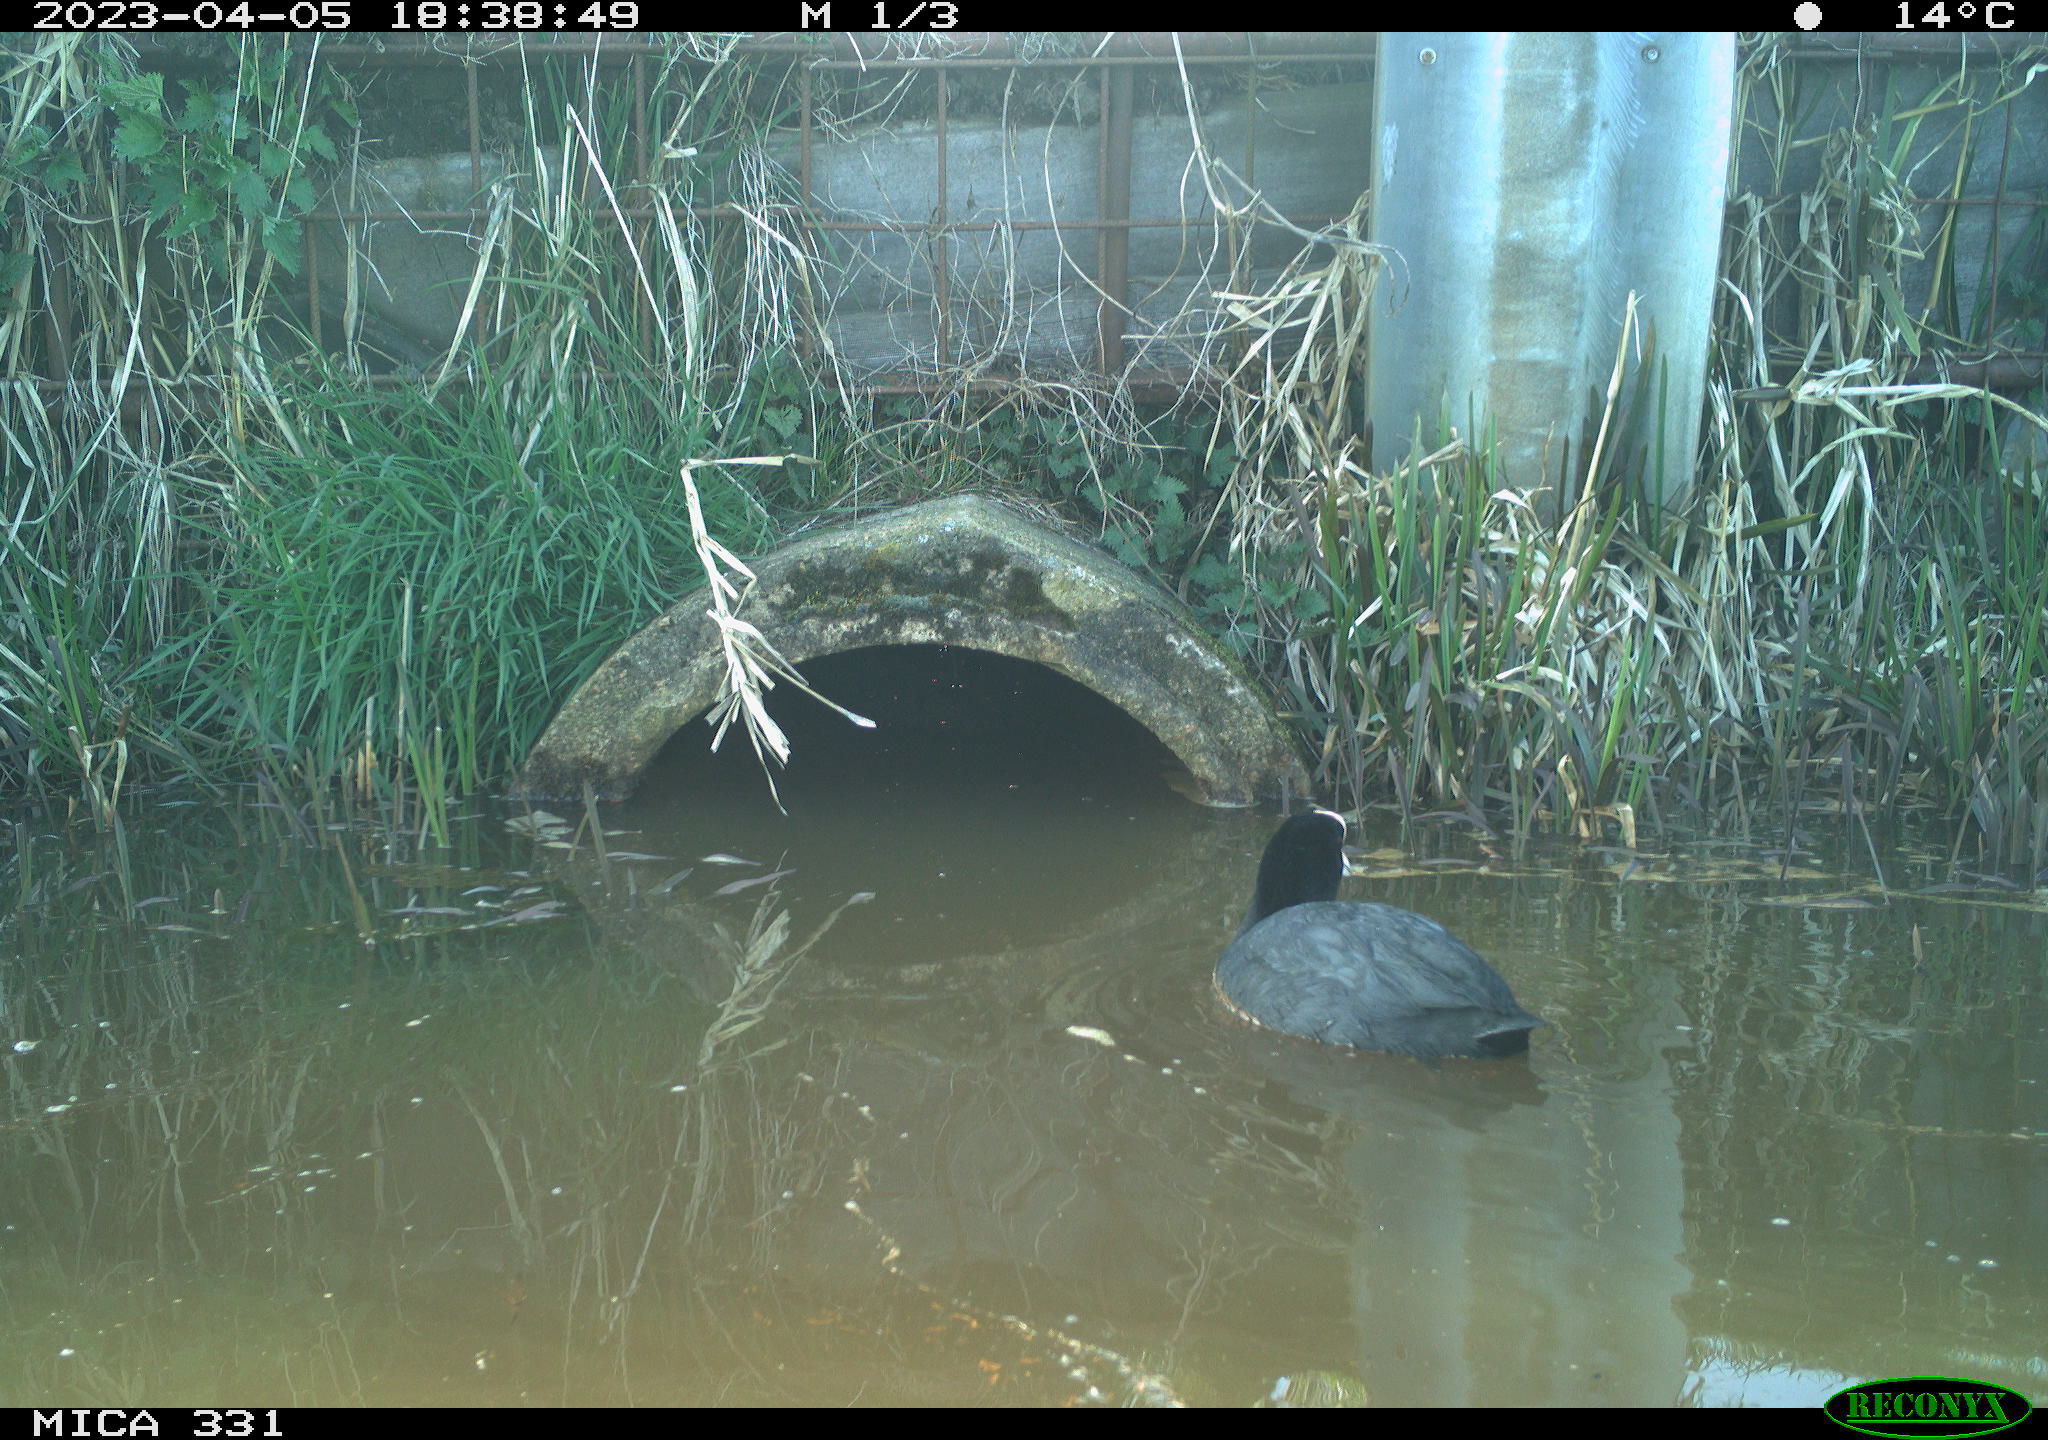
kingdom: Animalia
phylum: Chordata
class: Aves
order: Gruiformes
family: Rallidae
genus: Fulica
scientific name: Fulica atra
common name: Eurasian coot
